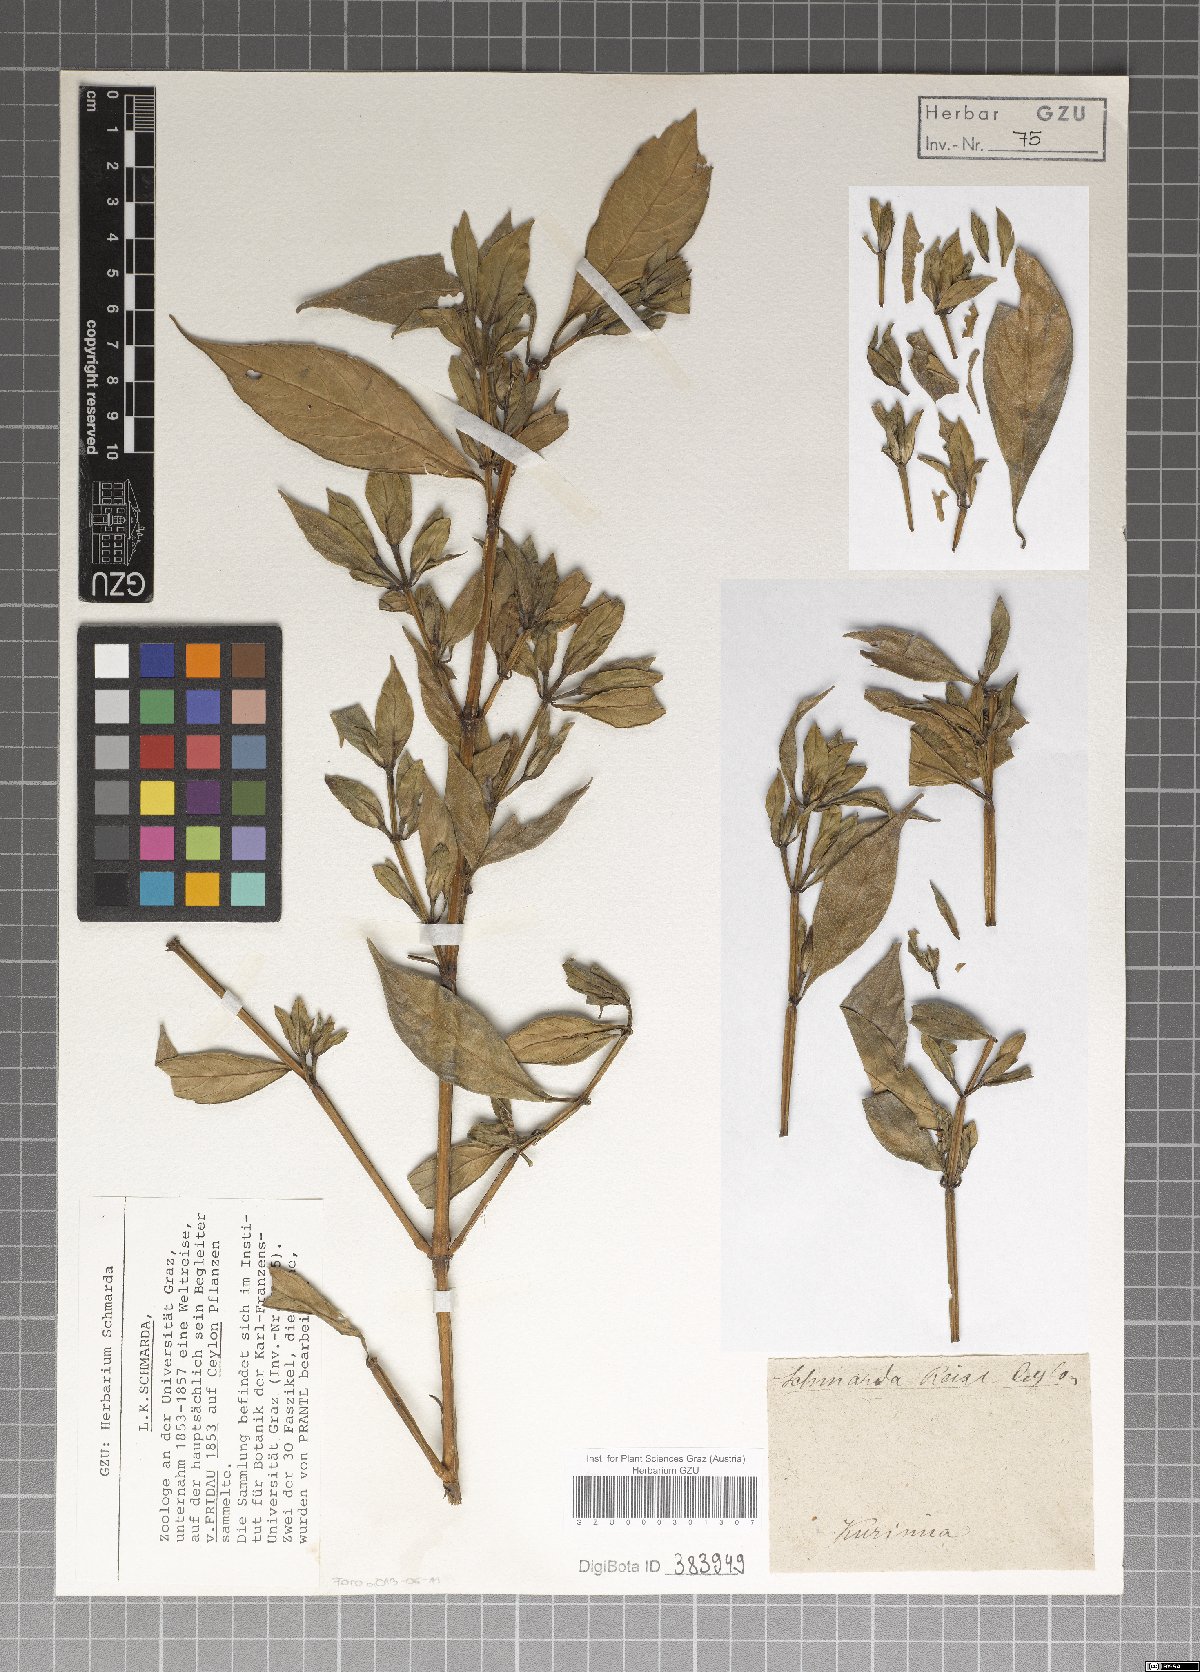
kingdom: Plantae
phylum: Tracheophyta
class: Magnoliopsida
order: Lamiales
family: Acanthaceae
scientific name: Acanthaceae
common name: Acanthaceae
